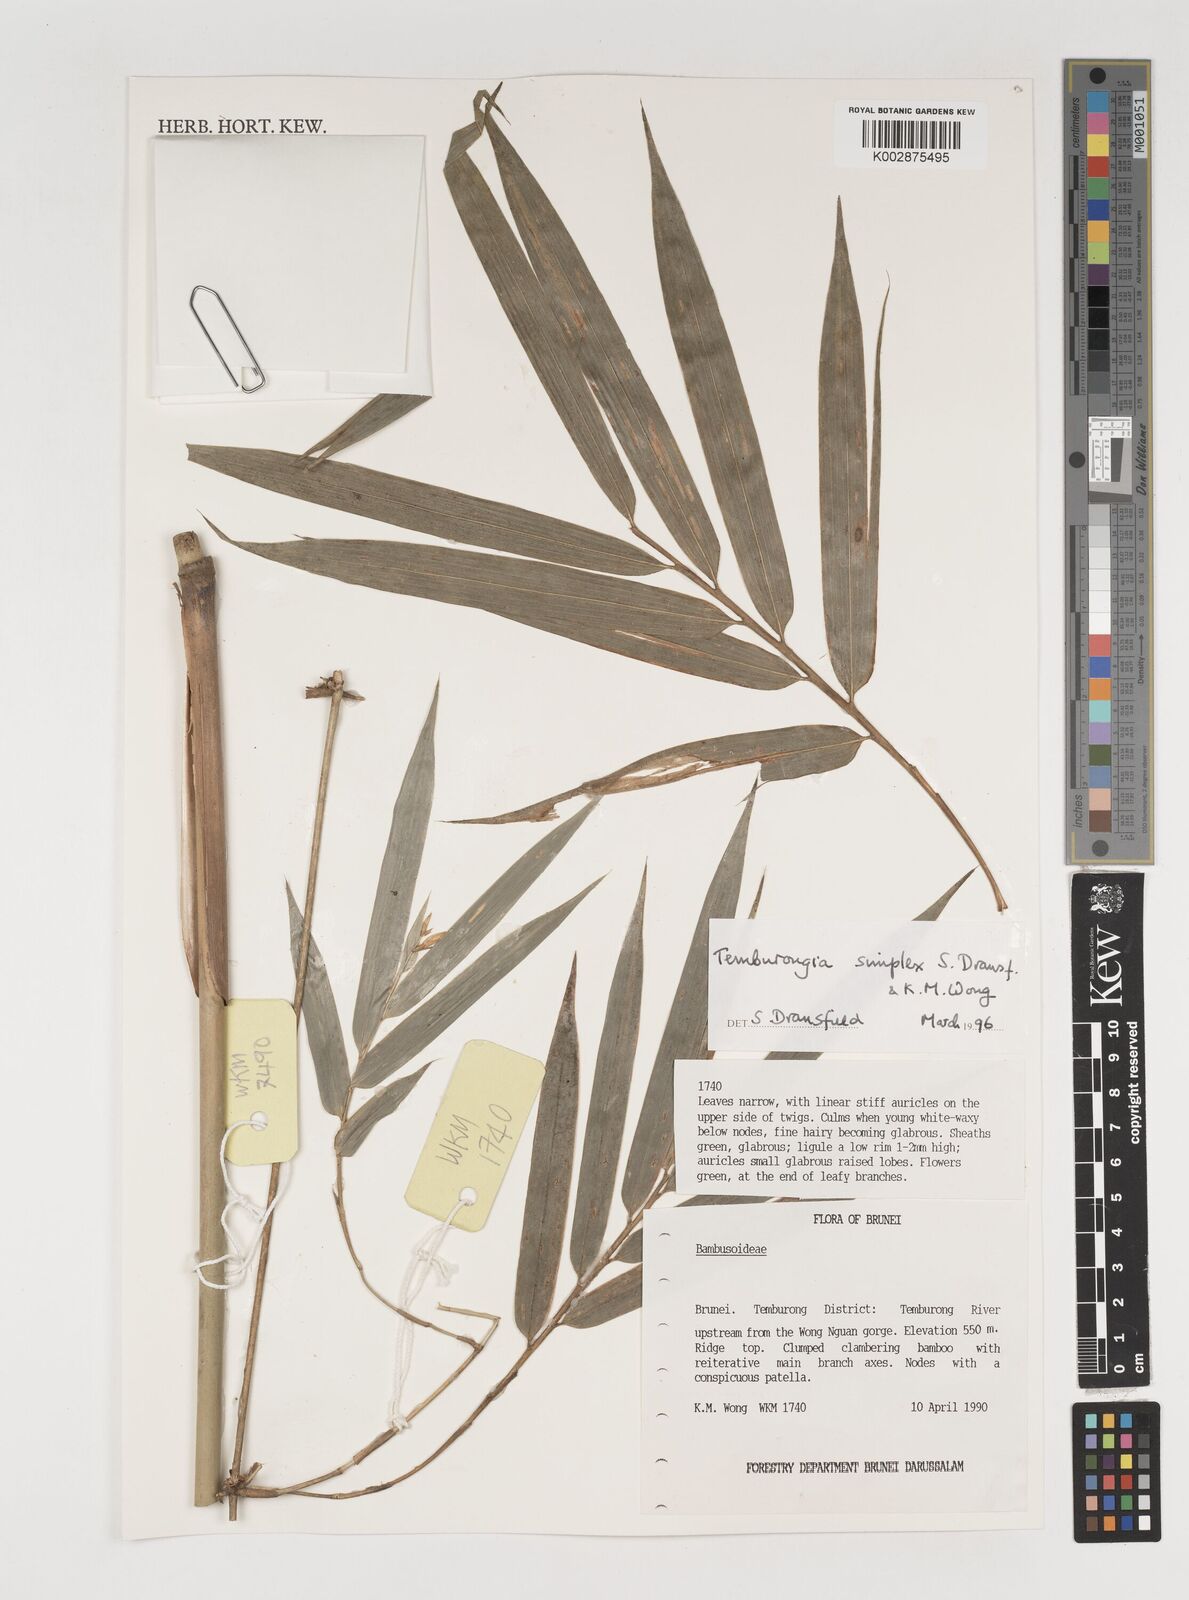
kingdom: Plantae
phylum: Tracheophyta
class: Liliopsida
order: Poales
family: Poaceae
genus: Temburongia
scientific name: Temburongia
